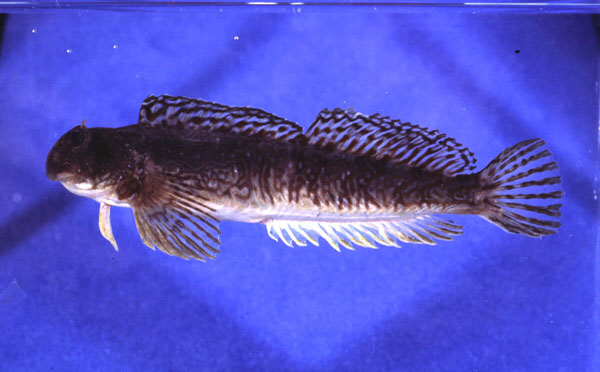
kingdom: Animalia
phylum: Chordata
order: Perciformes
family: Blenniidae
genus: Istiblennius
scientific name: Istiblennius unicolor
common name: Pallid rockskipper
